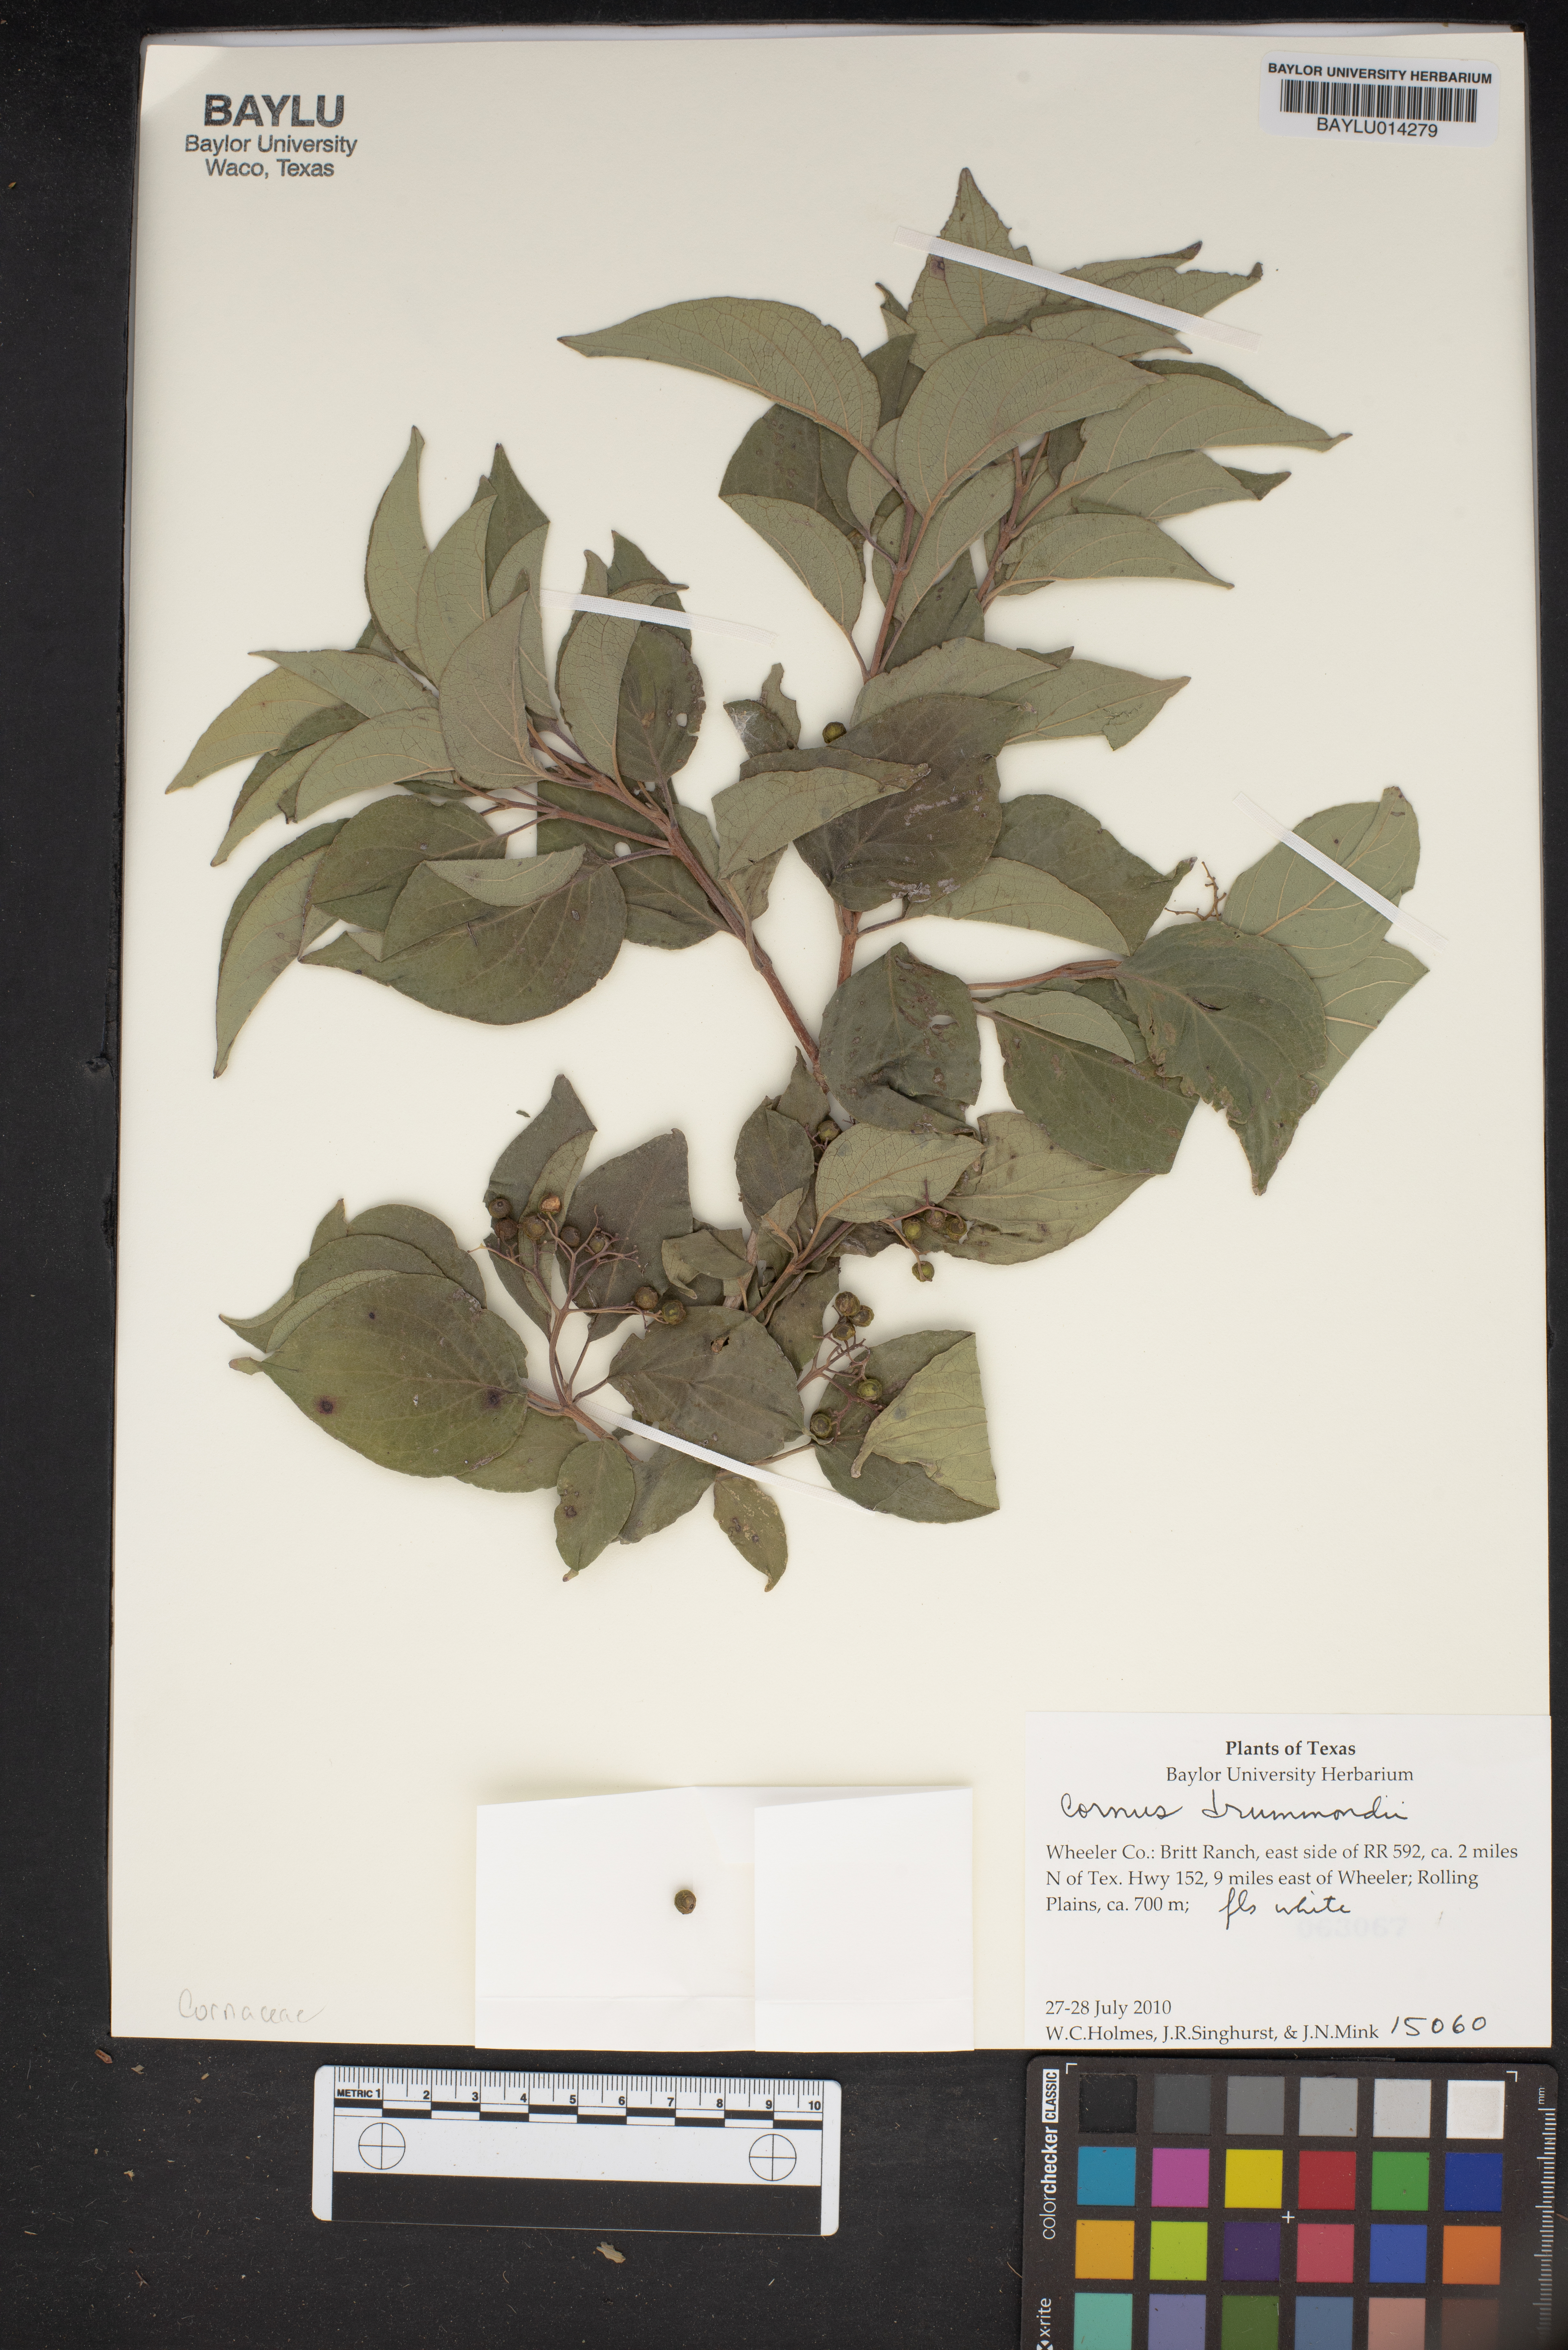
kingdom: Plantae
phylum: Tracheophyta
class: Magnoliopsida
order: Cornales
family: Cornaceae
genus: Cornus
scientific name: Cornus drummondii
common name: Rough-leaf dogwood
